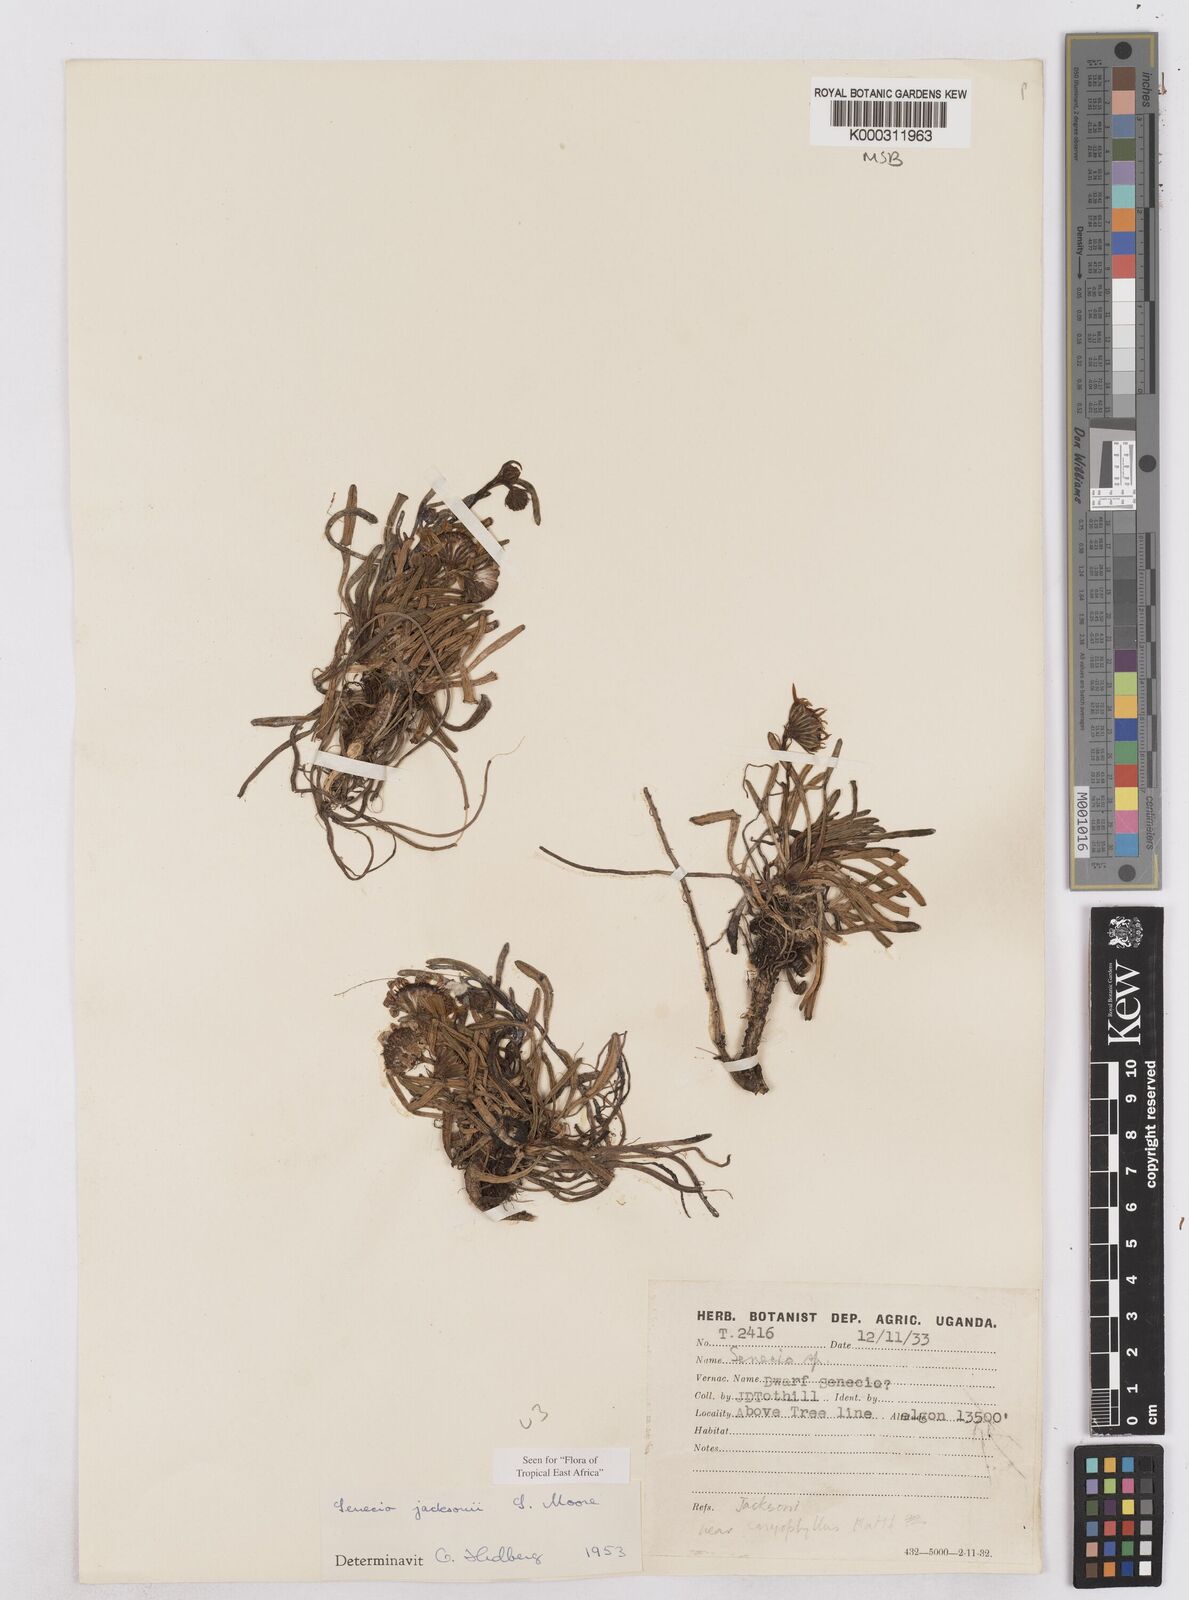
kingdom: Plantae
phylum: Tracheophyta
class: Magnoliopsida
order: Asterales
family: Asteraceae
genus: Senecio
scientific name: Senecio jacksonii
